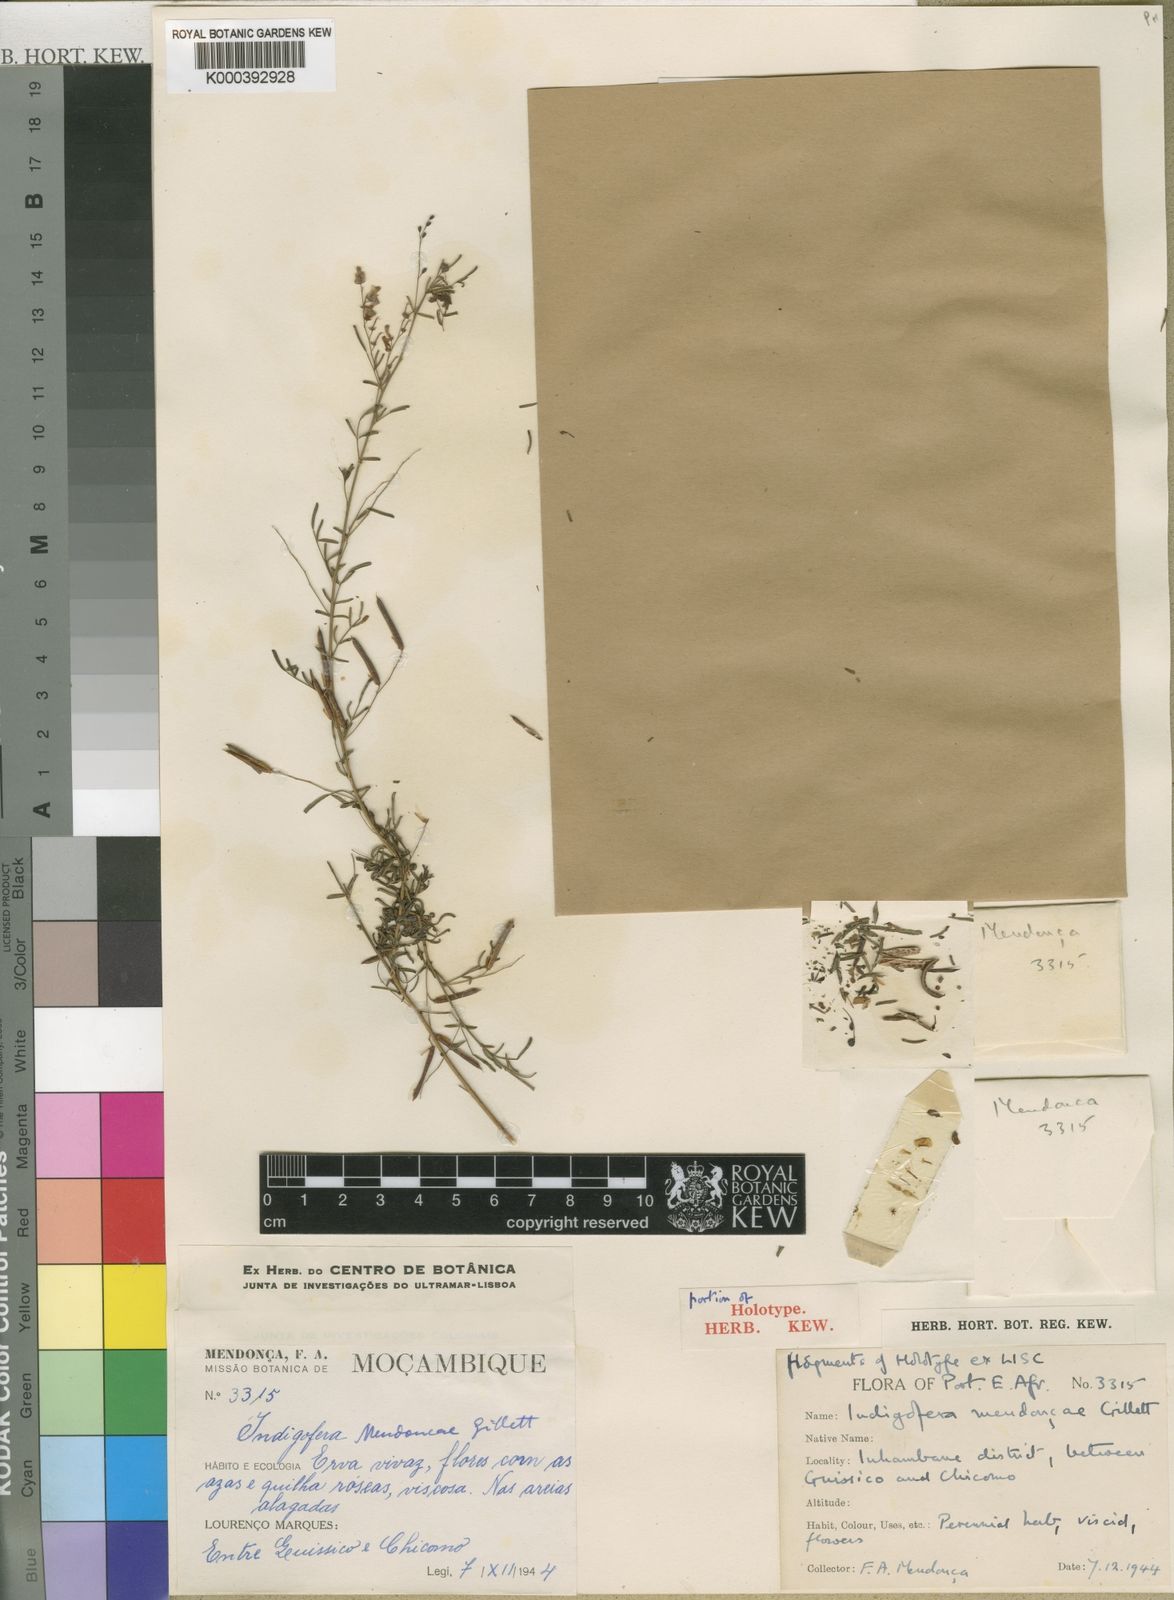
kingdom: Plantae
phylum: Tracheophyta
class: Magnoliopsida
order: Fabales
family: Fabaceae
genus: Indigofera
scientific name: Indigofera mendoncae
